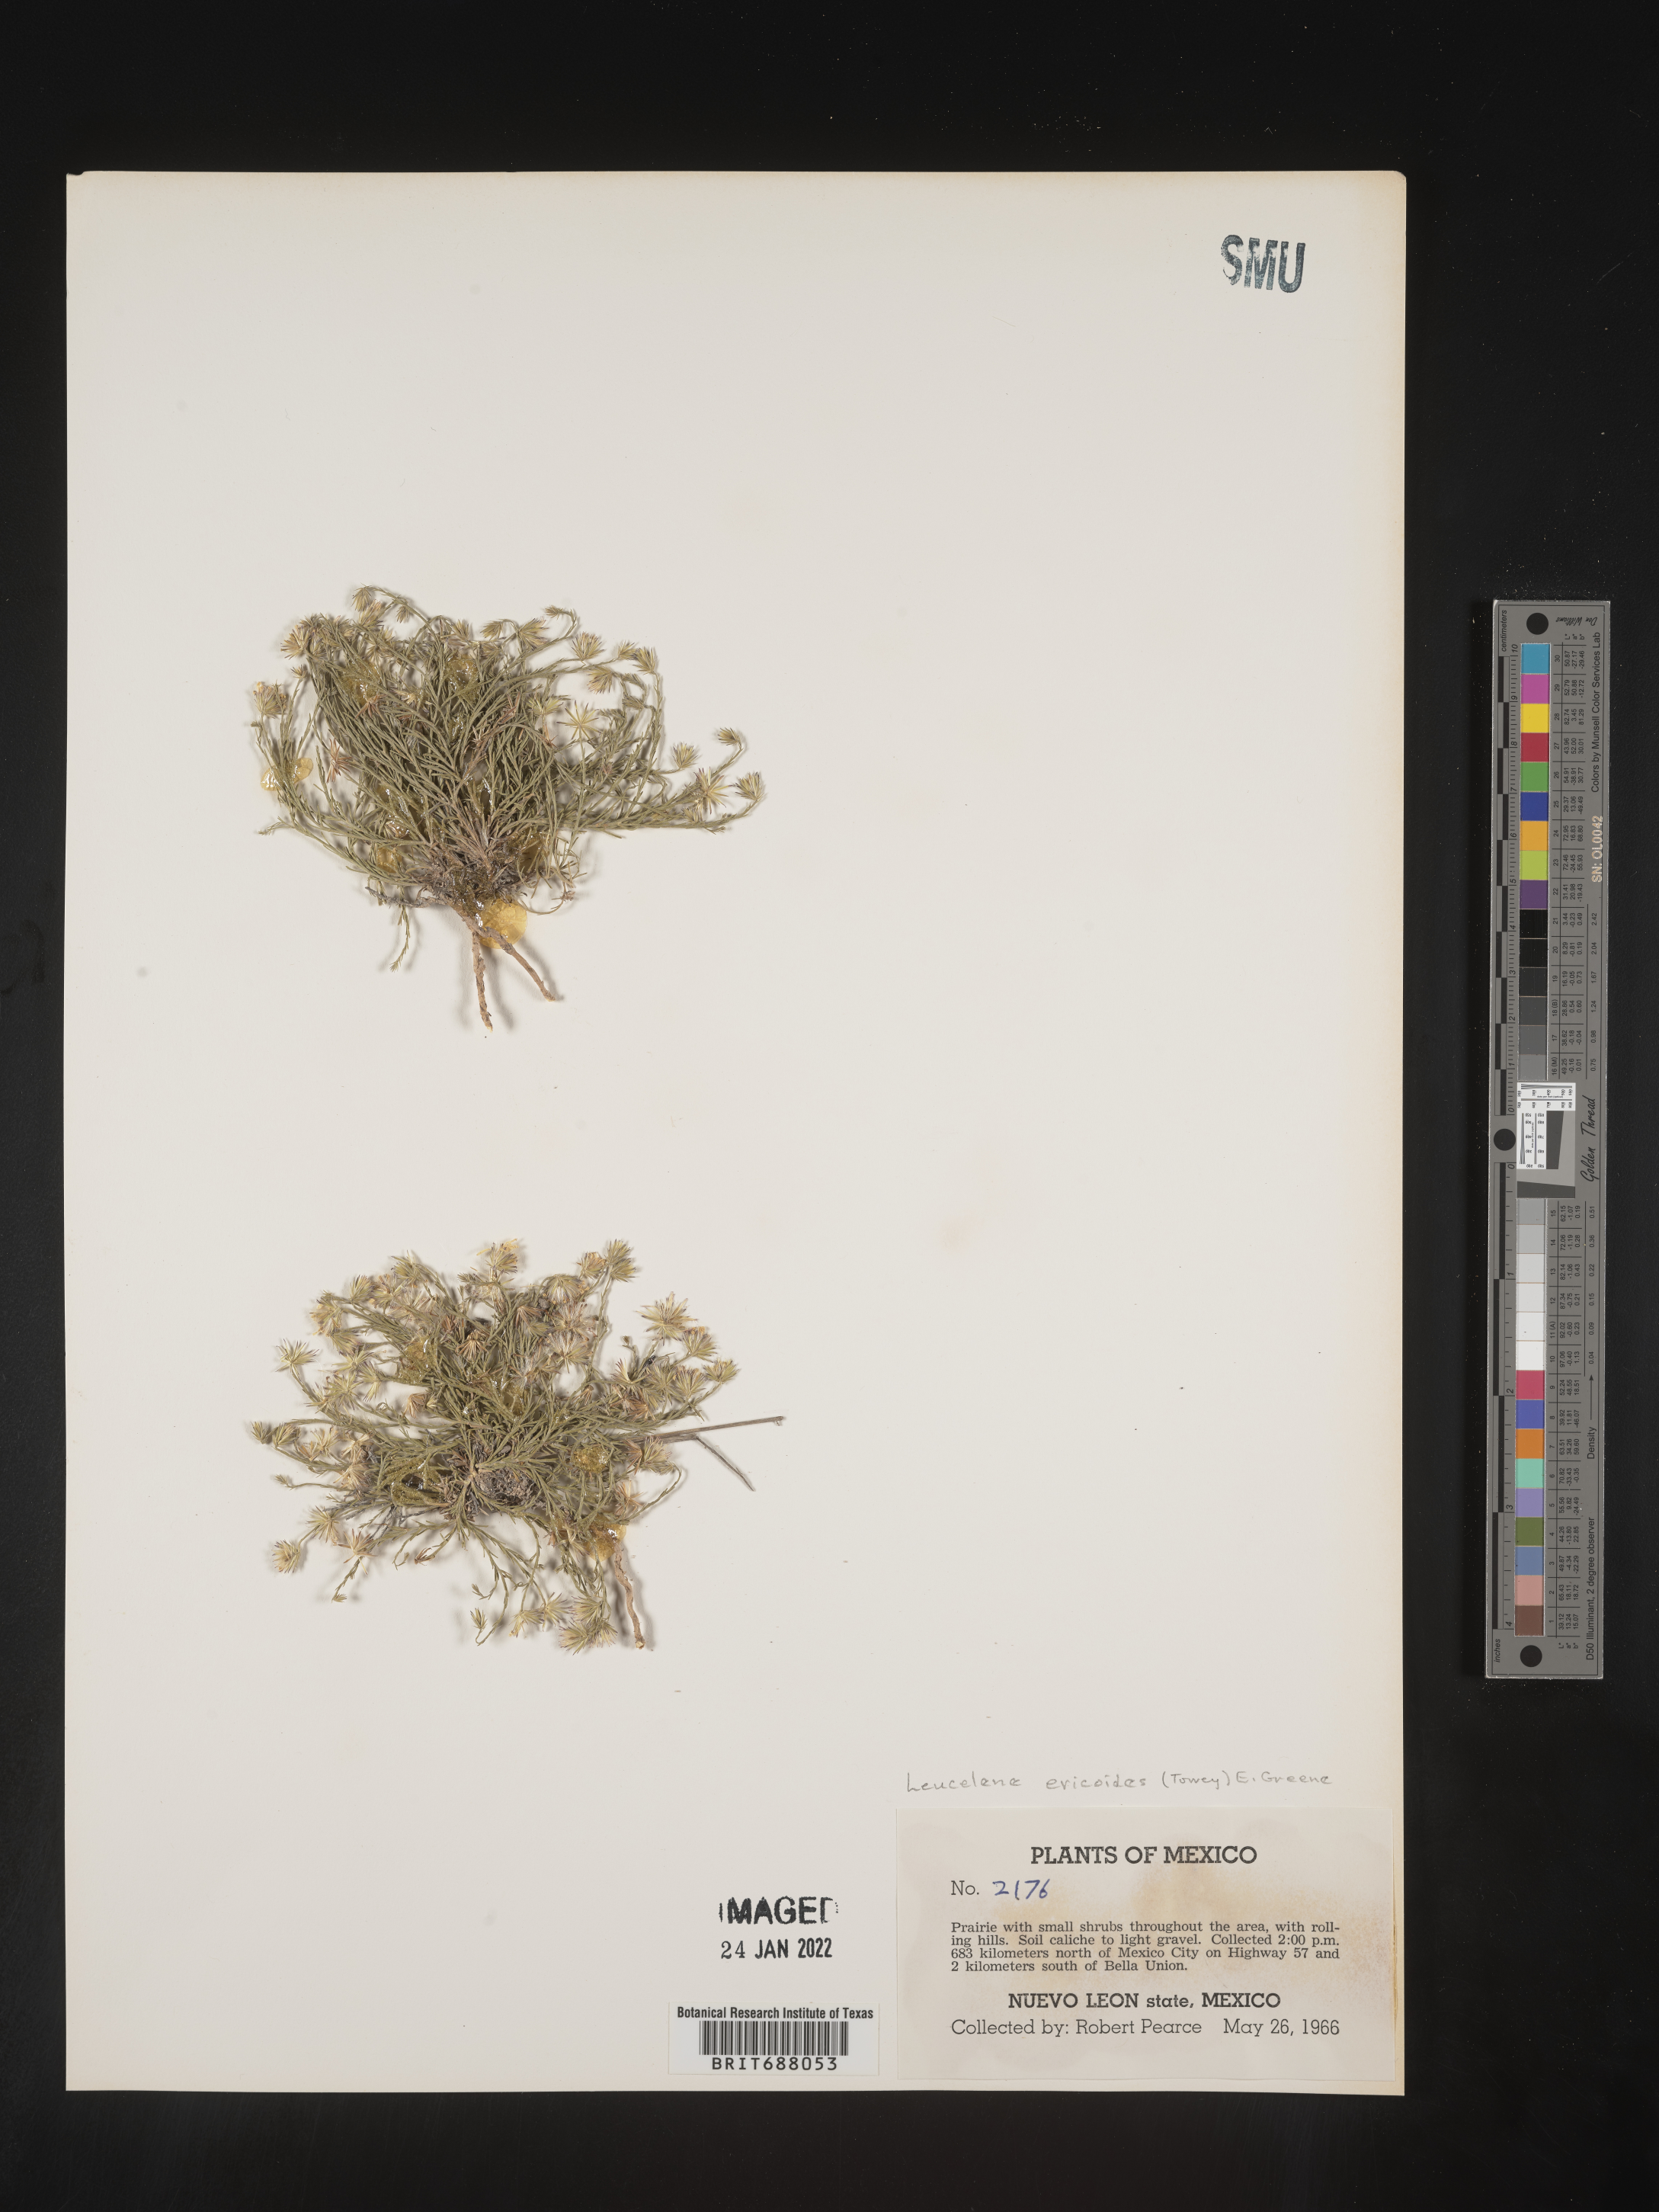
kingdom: Plantae
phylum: Tracheophyta
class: Magnoliopsida
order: Asterales
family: Asteraceae
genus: Chaetopappa
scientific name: Chaetopappa
